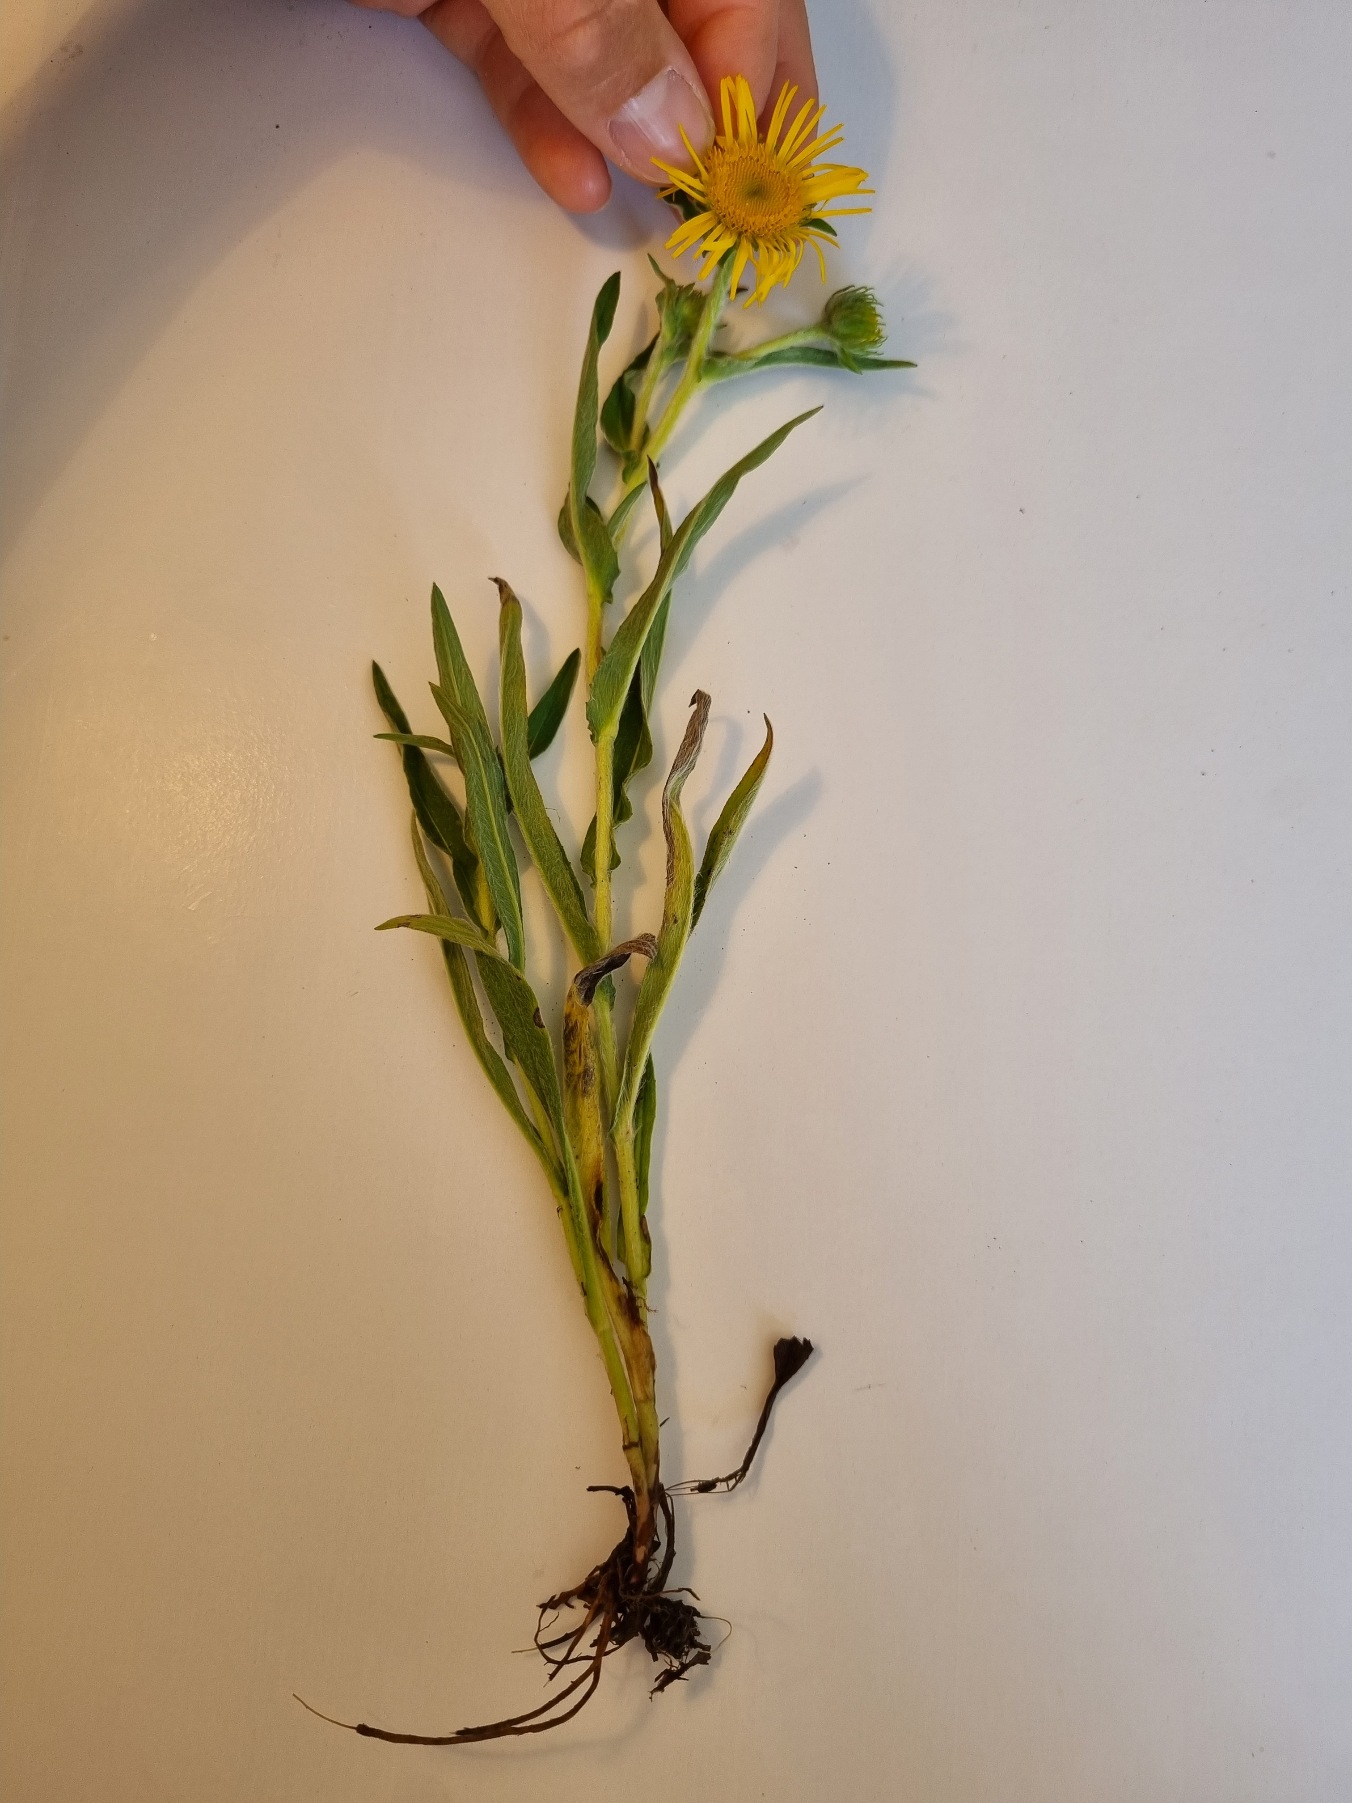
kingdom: Plantae
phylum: Tracheophyta
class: Magnoliopsida
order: Asterales
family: Asteraceae
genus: Pentanema
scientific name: Pentanema britannicum
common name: Soløje-alant
